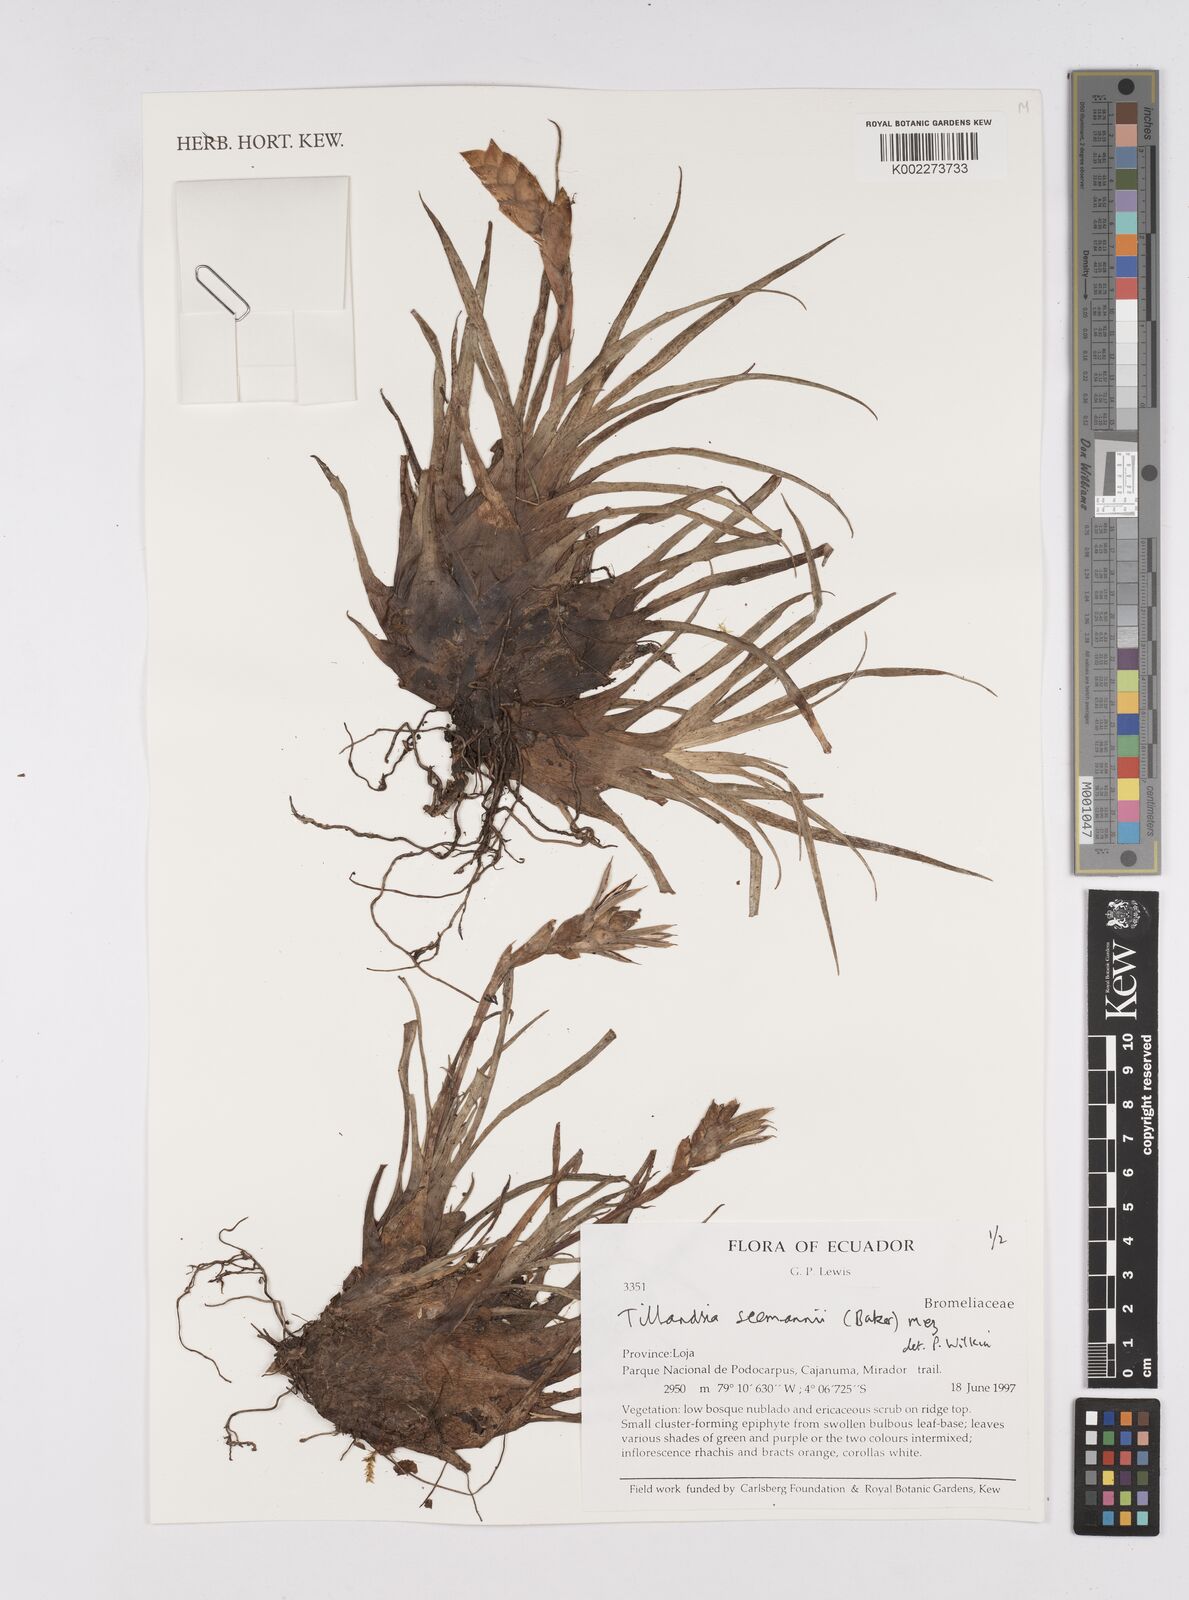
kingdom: Plantae
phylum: Tracheophyta
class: Liliopsida
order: Poales
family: Bromeliaceae
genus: Racinaea
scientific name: Racinaea seemannii
